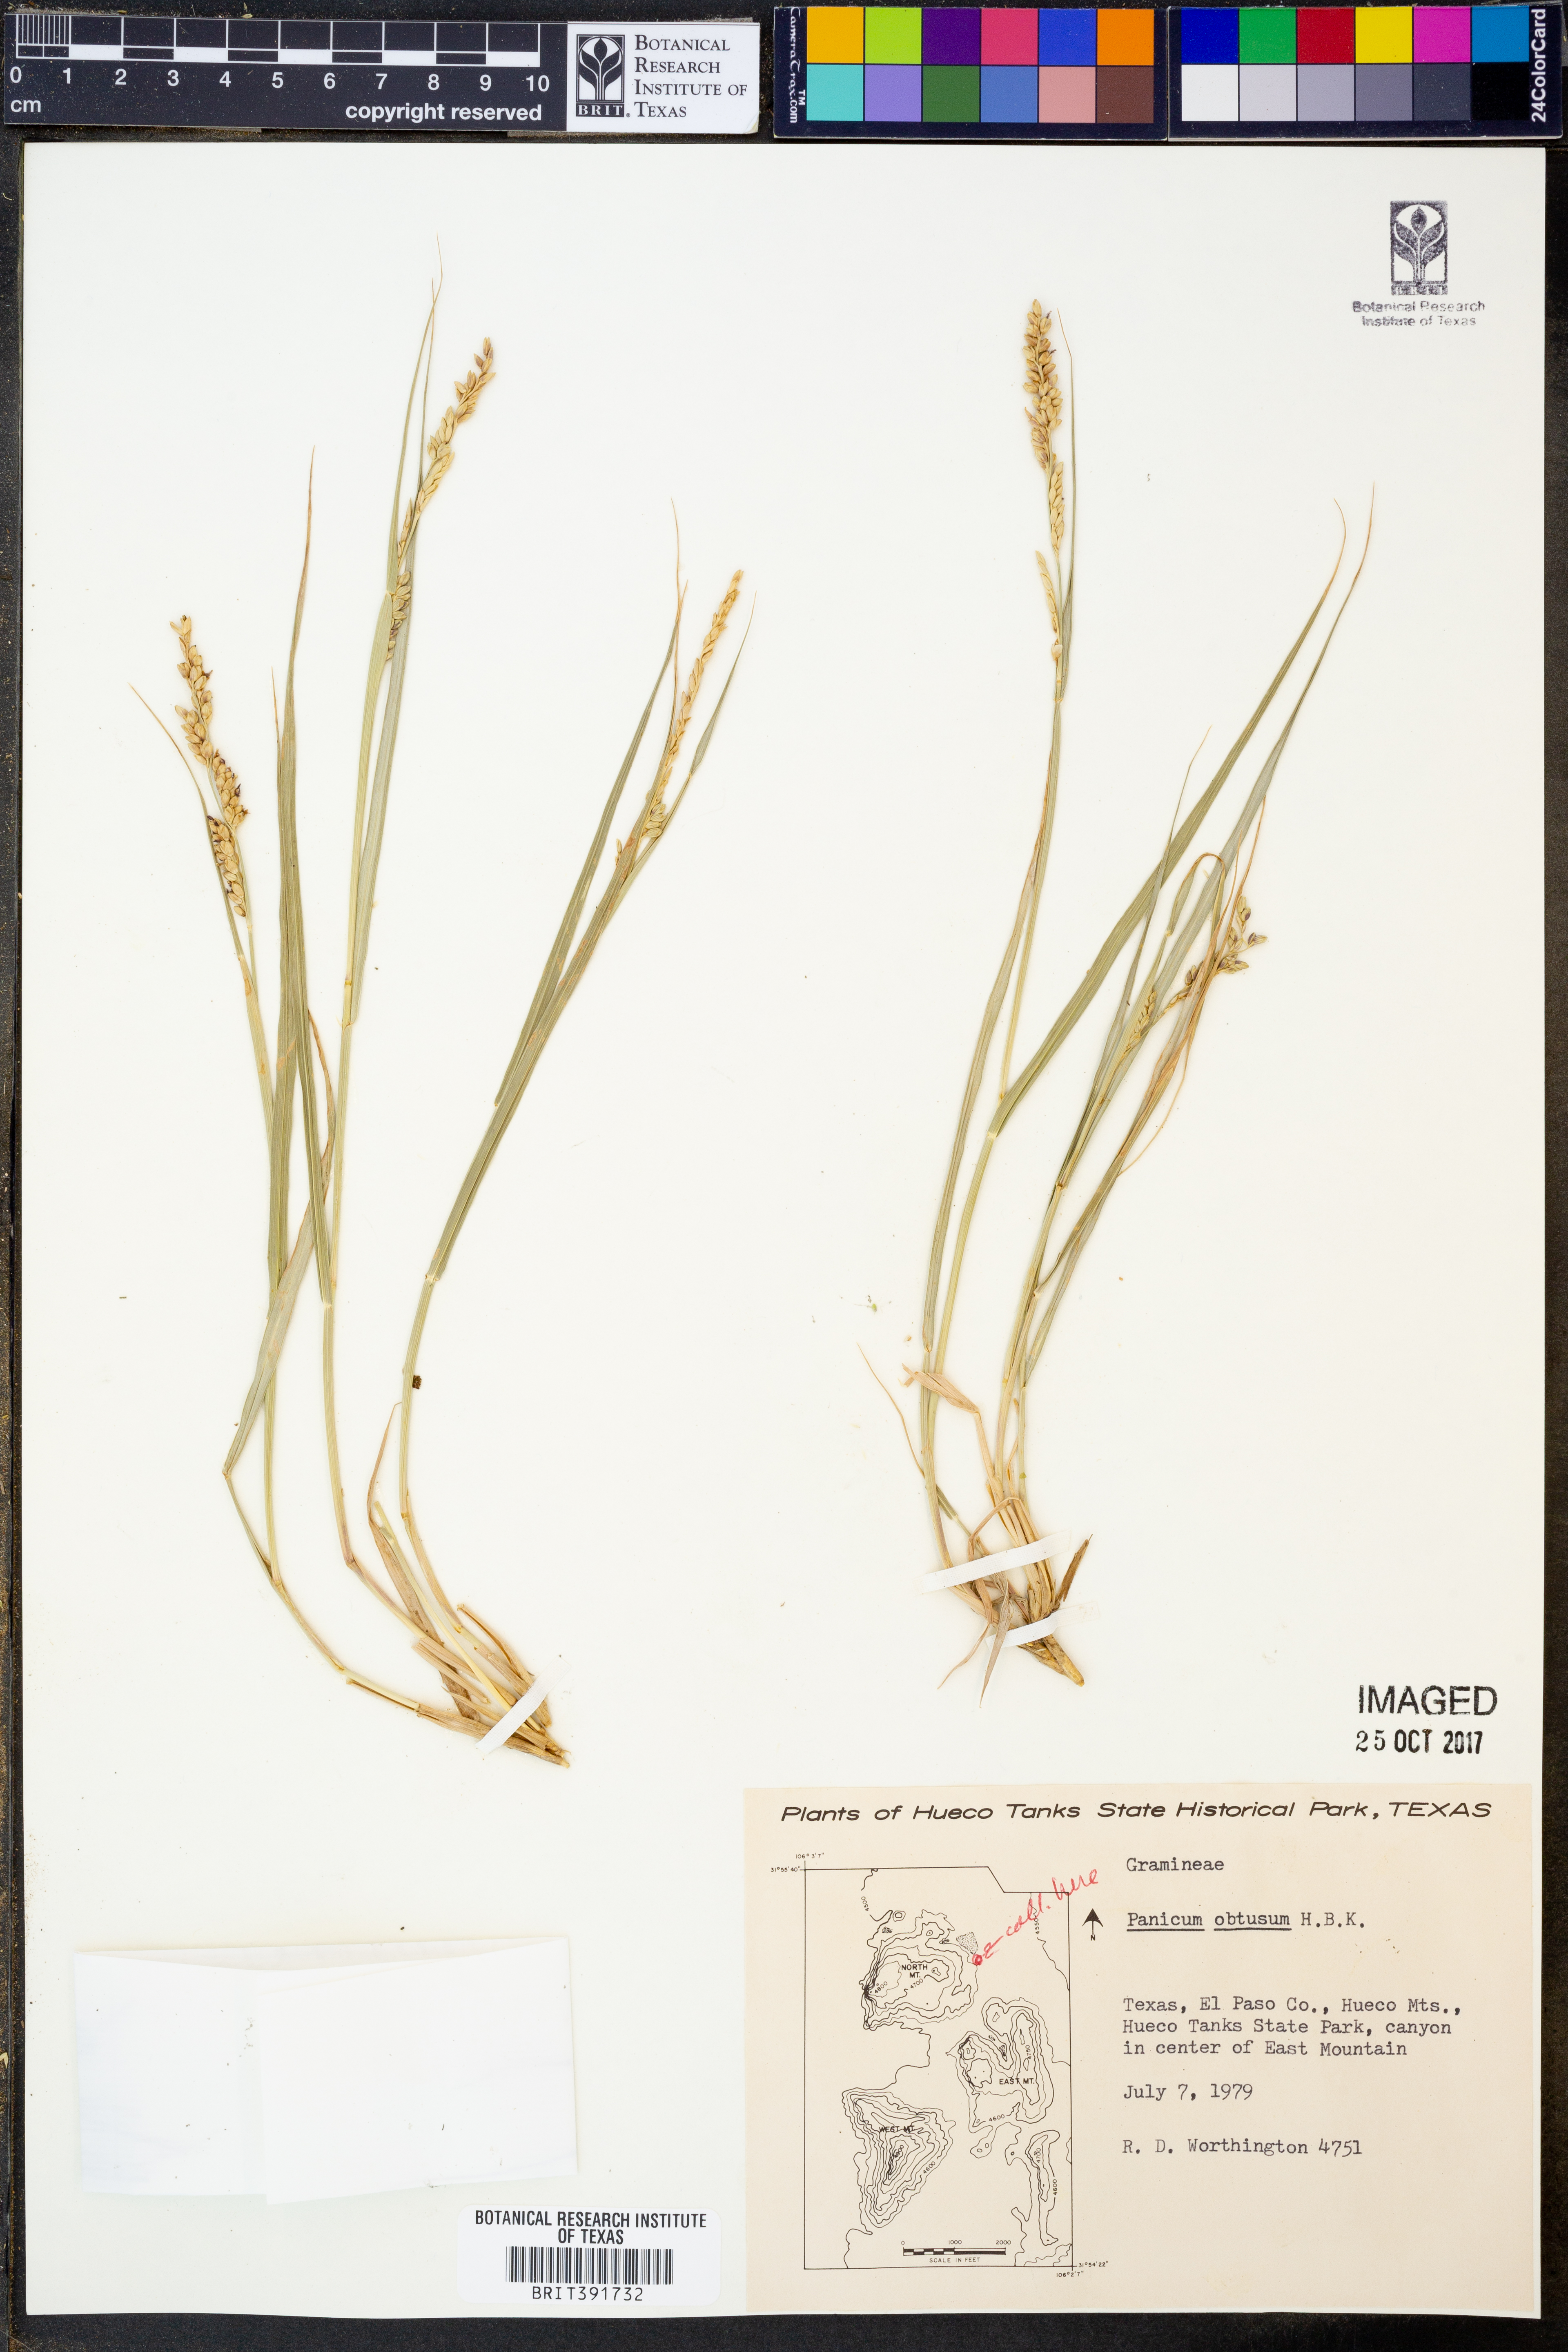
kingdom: Plantae
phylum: Tracheophyta
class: Liliopsida
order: Poales
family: Poaceae
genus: Hopia
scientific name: Hopia obtusa
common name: Vine-mesquite
